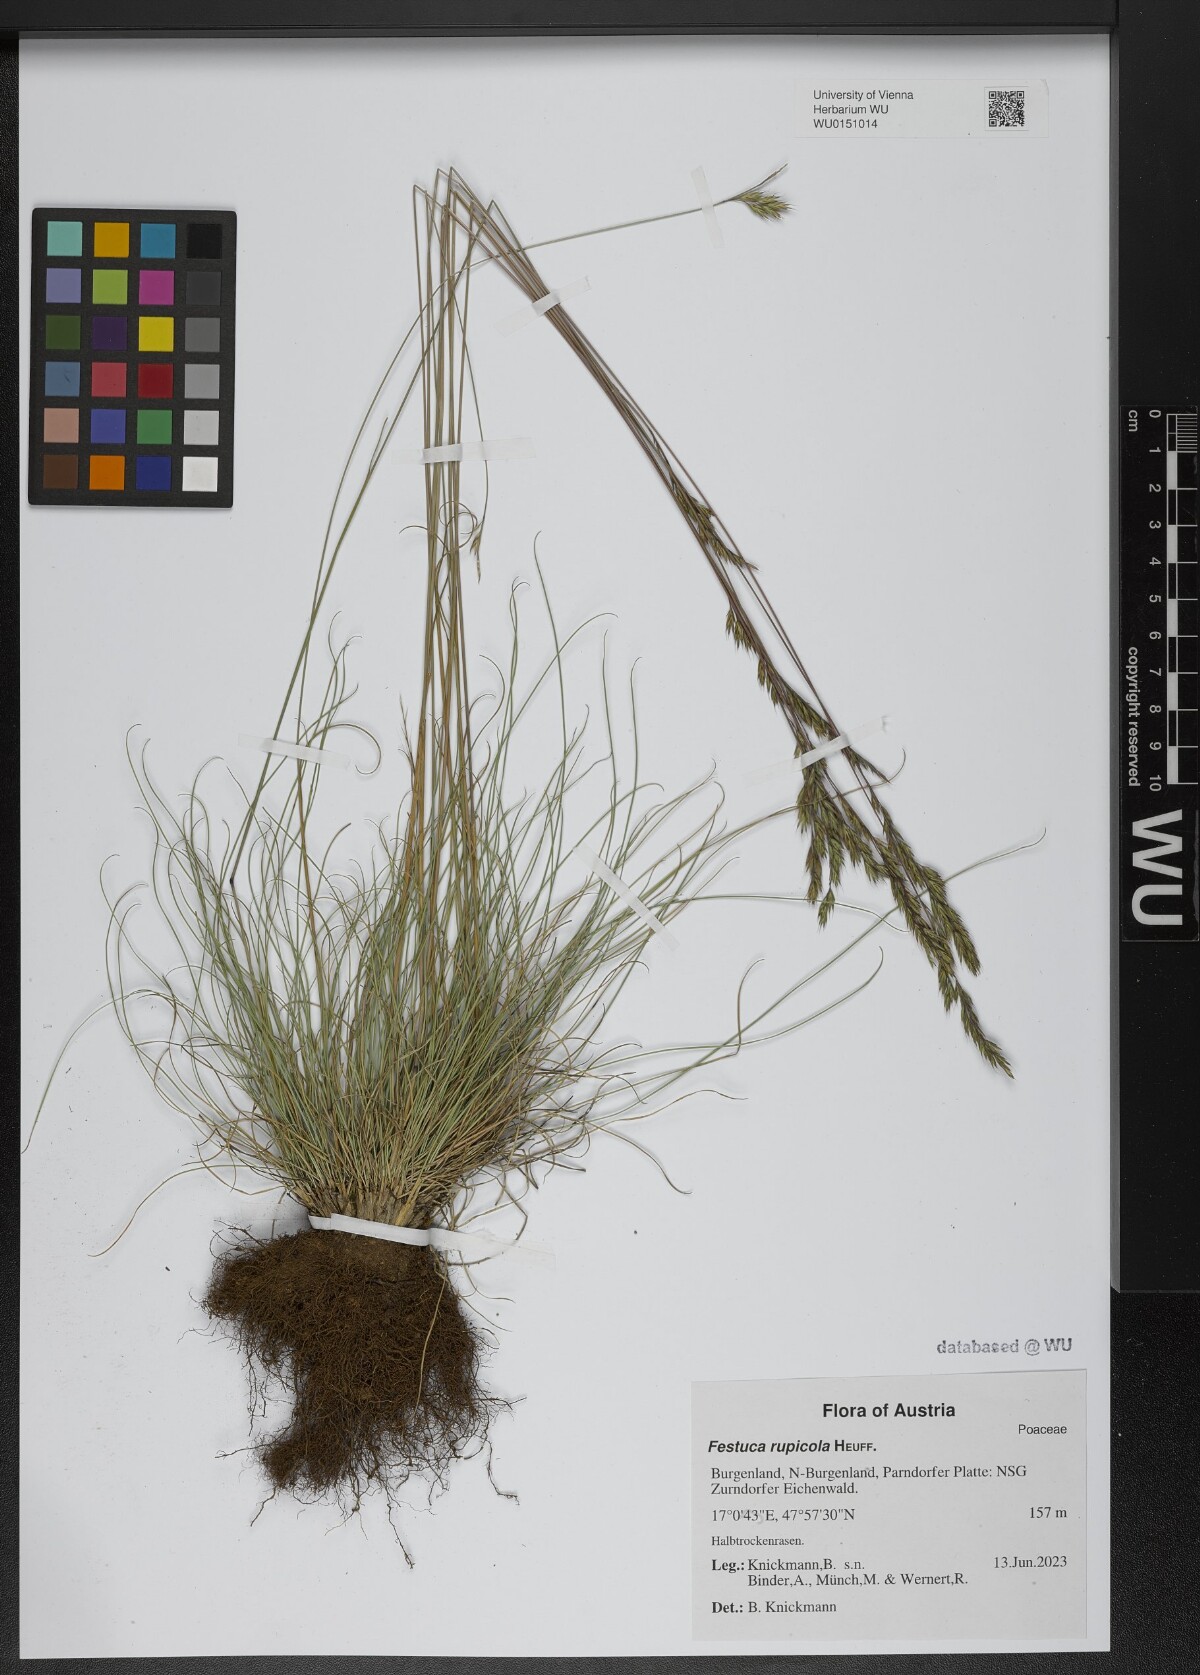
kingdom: Plantae
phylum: Tracheophyta
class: Liliopsida
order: Poales
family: Poaceae
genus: Festuca
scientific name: Festuca rupicola
